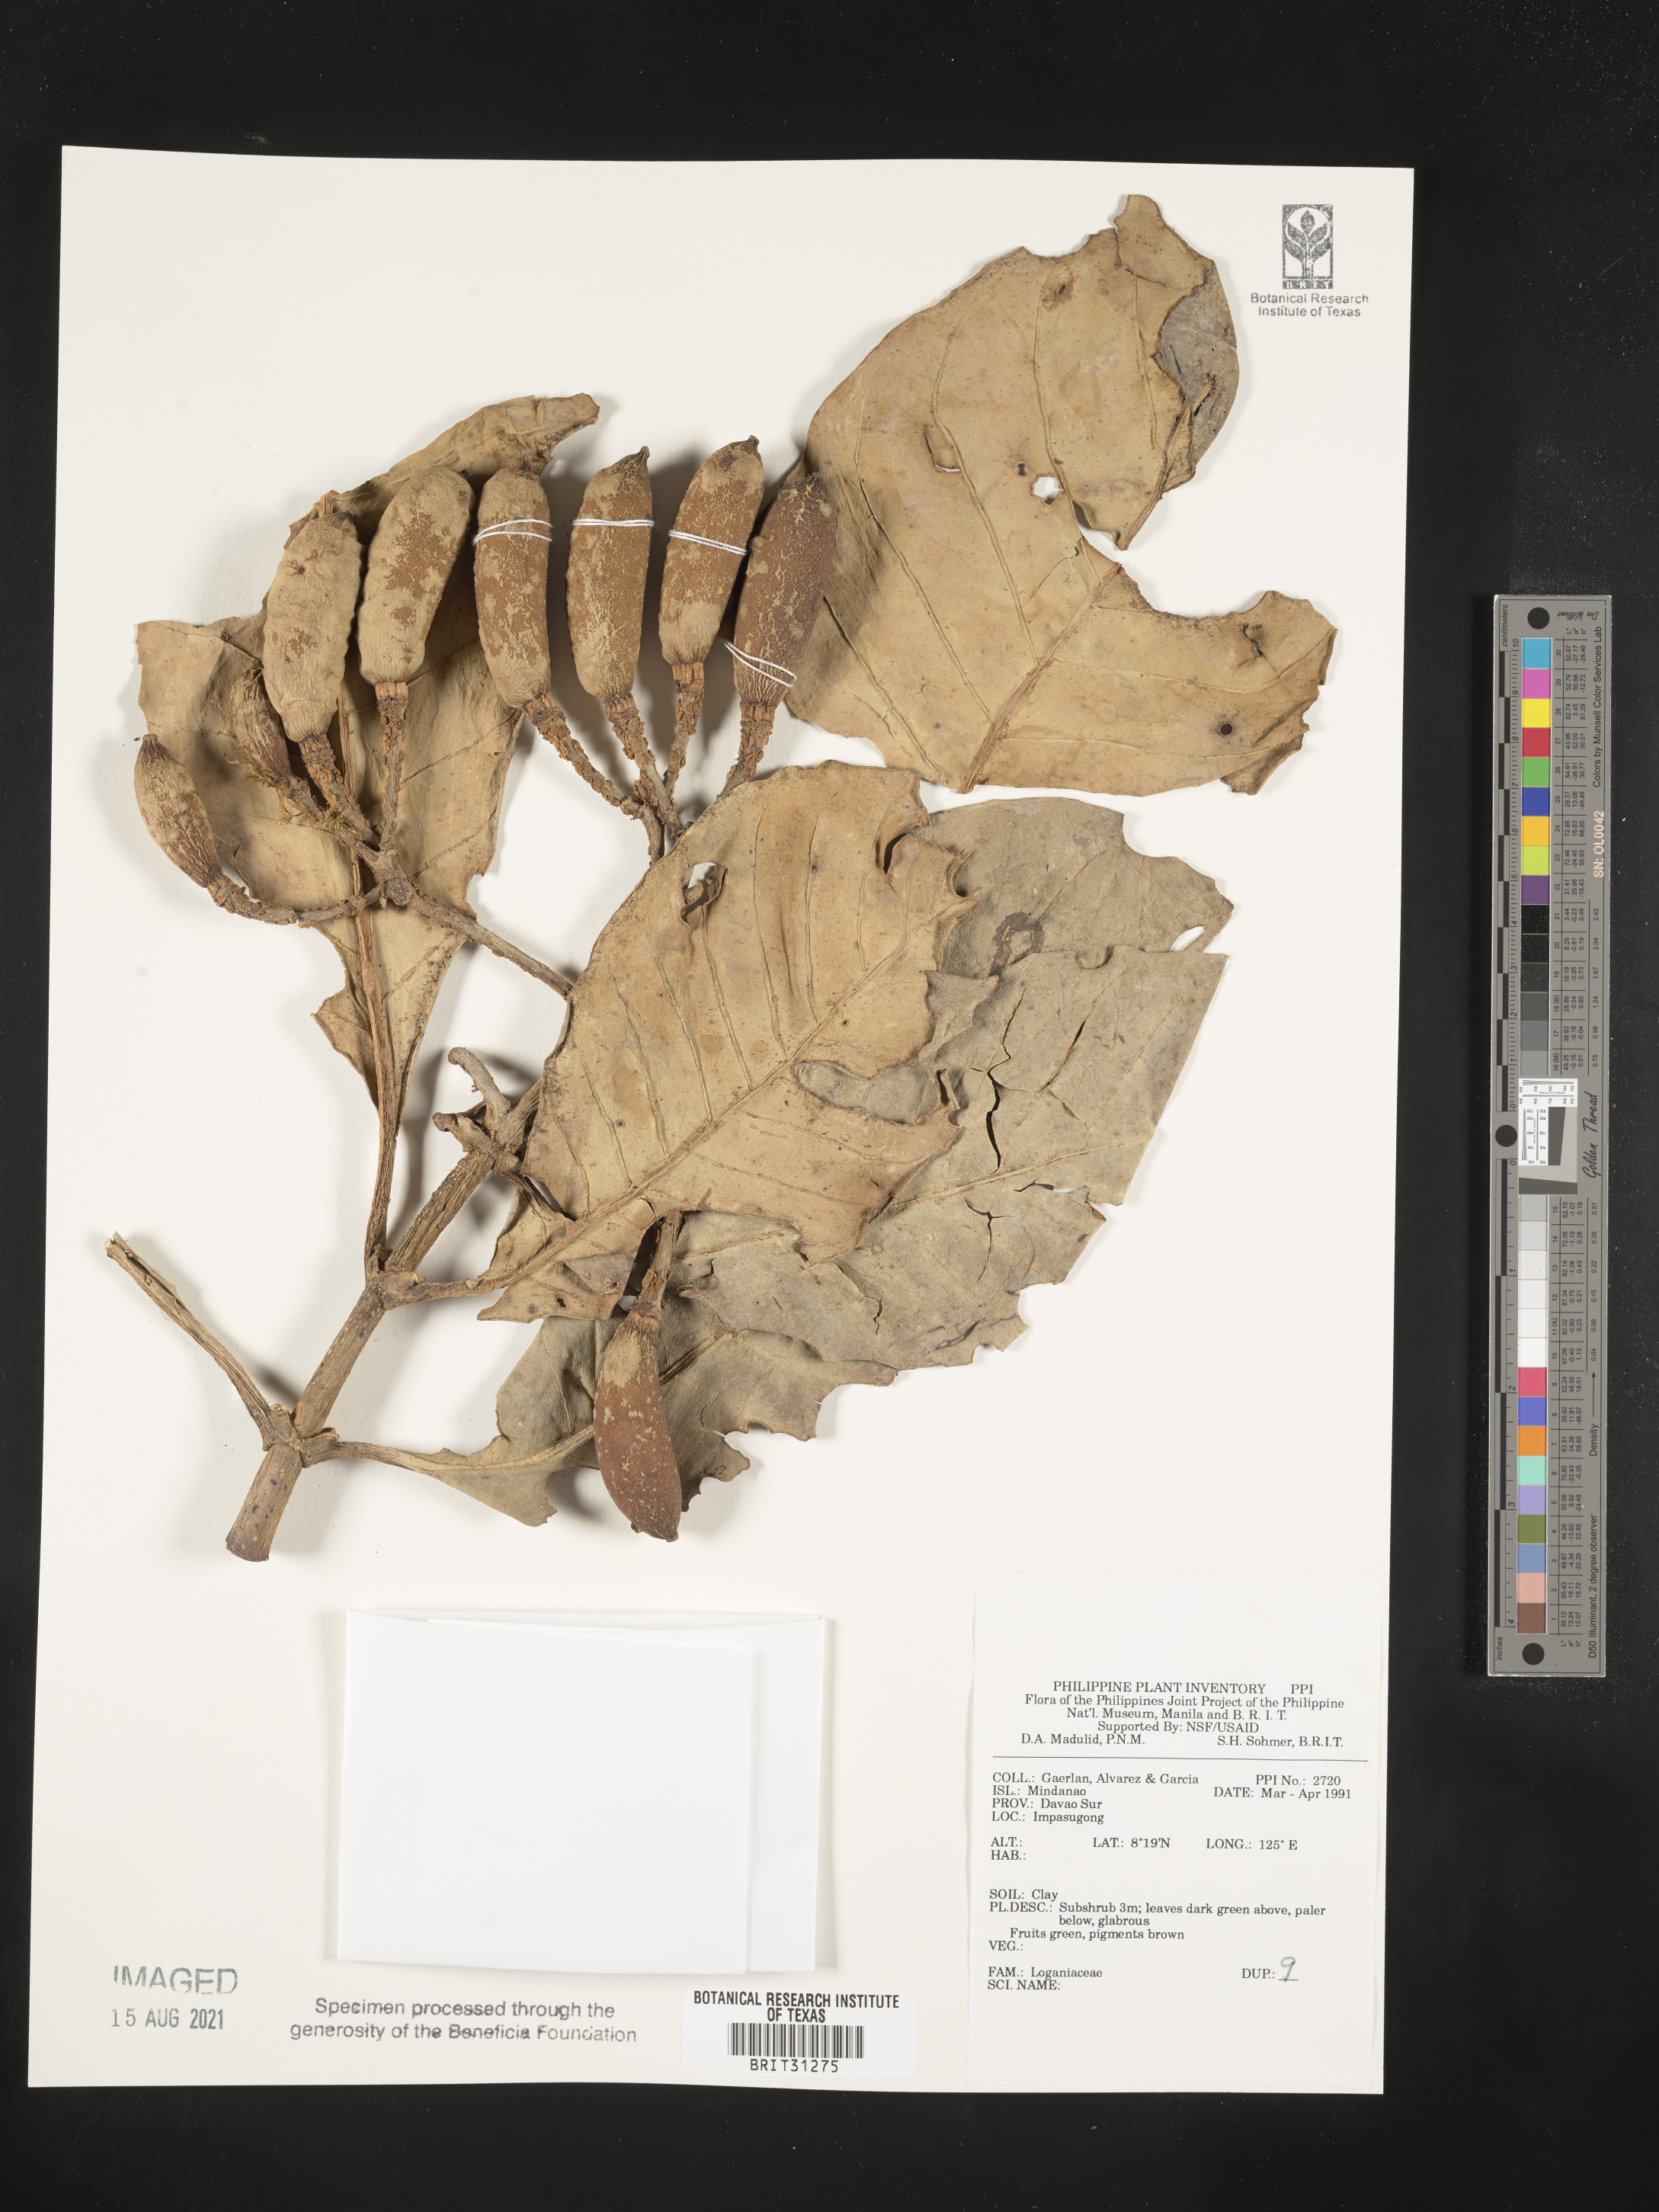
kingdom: Plantae
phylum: Tracheophyta
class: Magnoliopsida
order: Gentianales
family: Loganiaceae
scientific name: Loganiaceae
